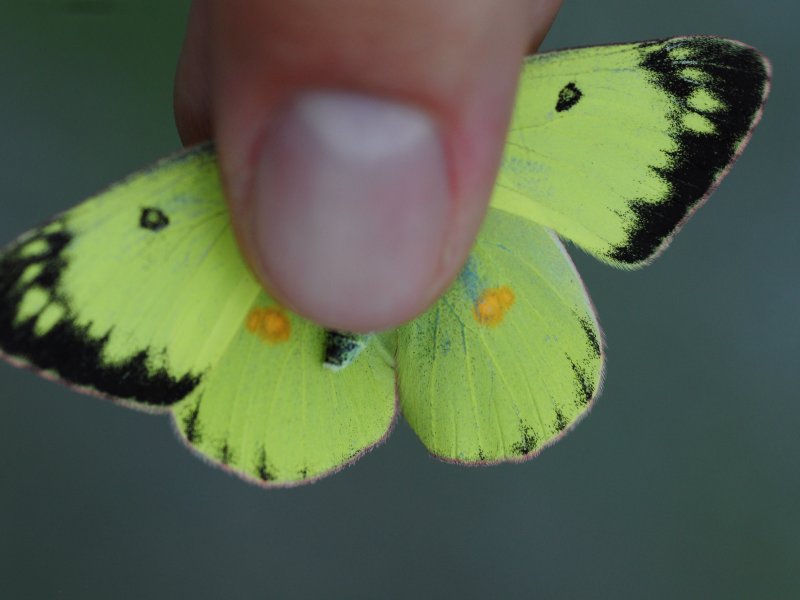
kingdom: Animalia
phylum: Arthropoda
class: Insecta
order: Lepidoptera
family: Pieridae
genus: Colias
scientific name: Colias philodice
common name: Clouded Sulphur
